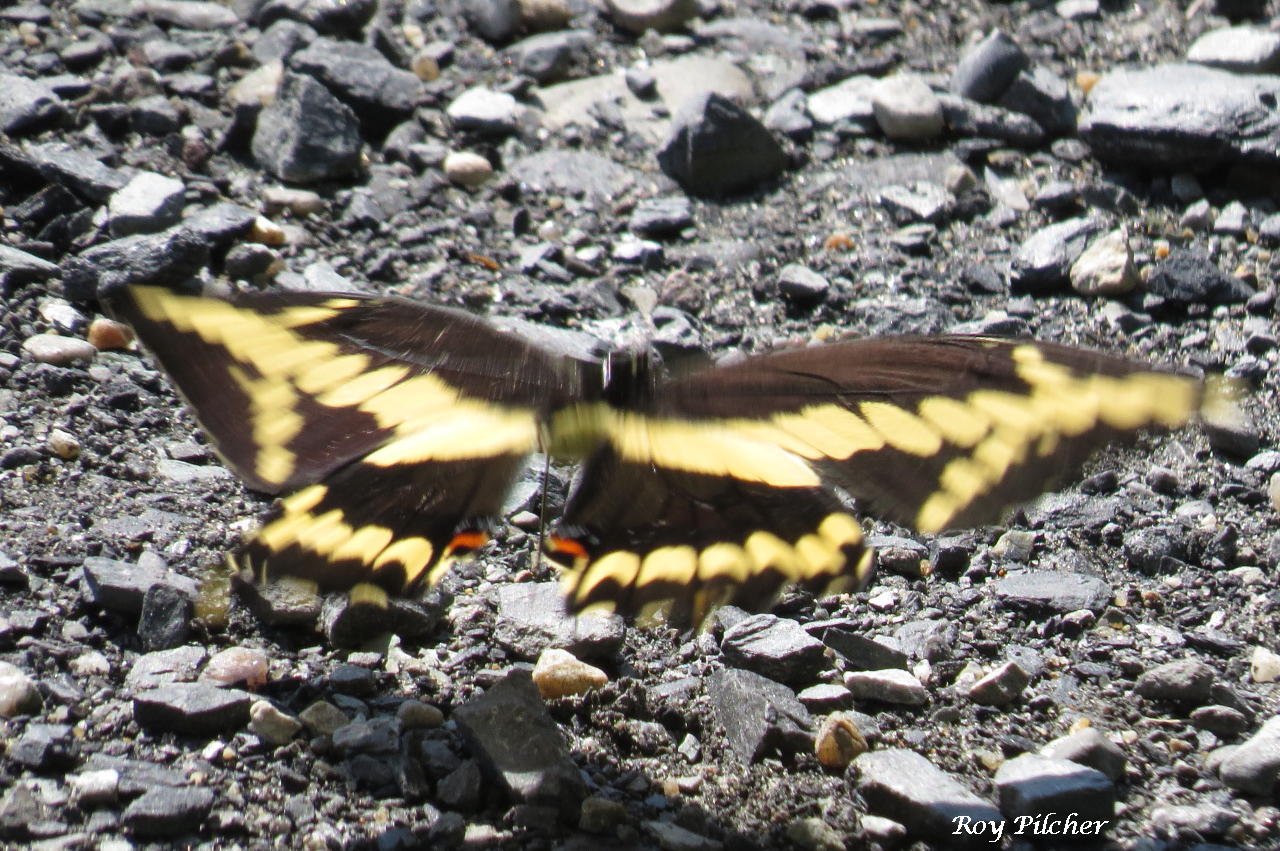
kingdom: Animalia
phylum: Arthropoda
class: Insecta
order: Lepidoptera
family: Papilionidae
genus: Papilio
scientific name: Papilio cresphontes
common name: Eastern Giant Swallowtail
